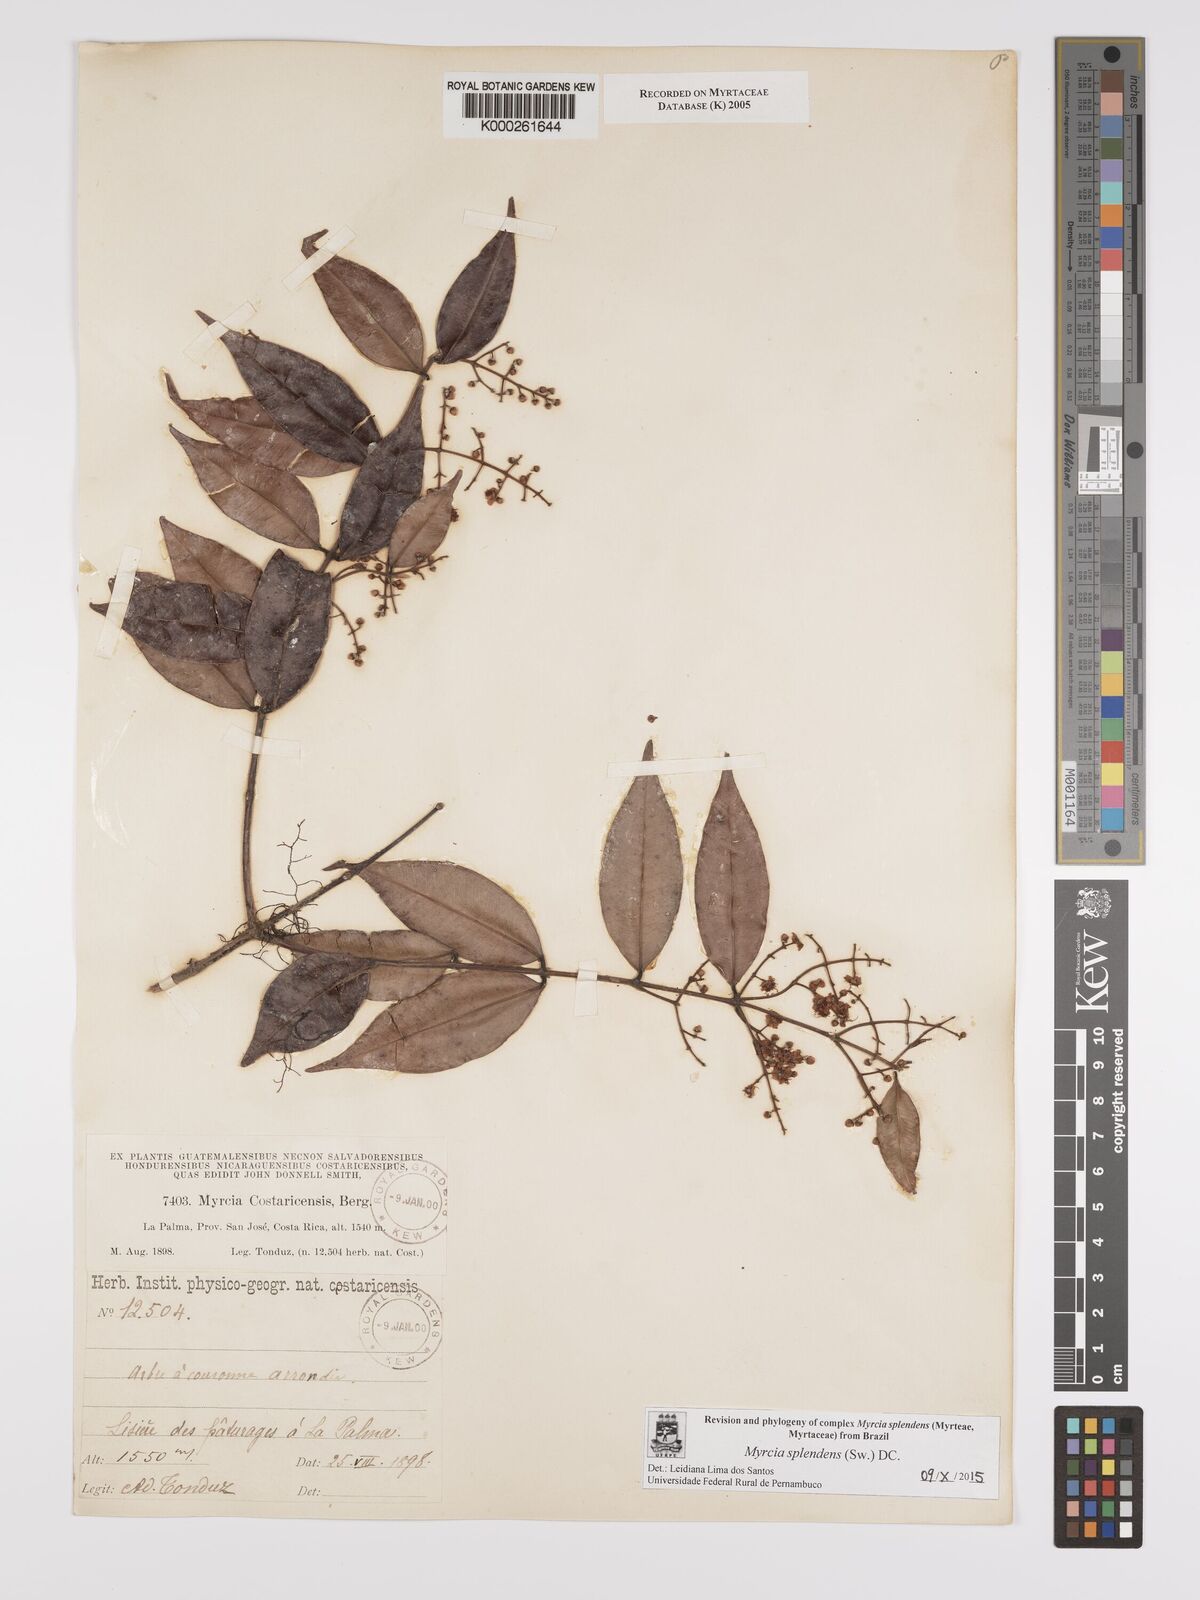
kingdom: Plantae
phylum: Tracheophyta
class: Magnoliopsida
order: Myrtales
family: Myrtaceae
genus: Myrcia
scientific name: Myrcia splendens
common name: Surinam cherry
